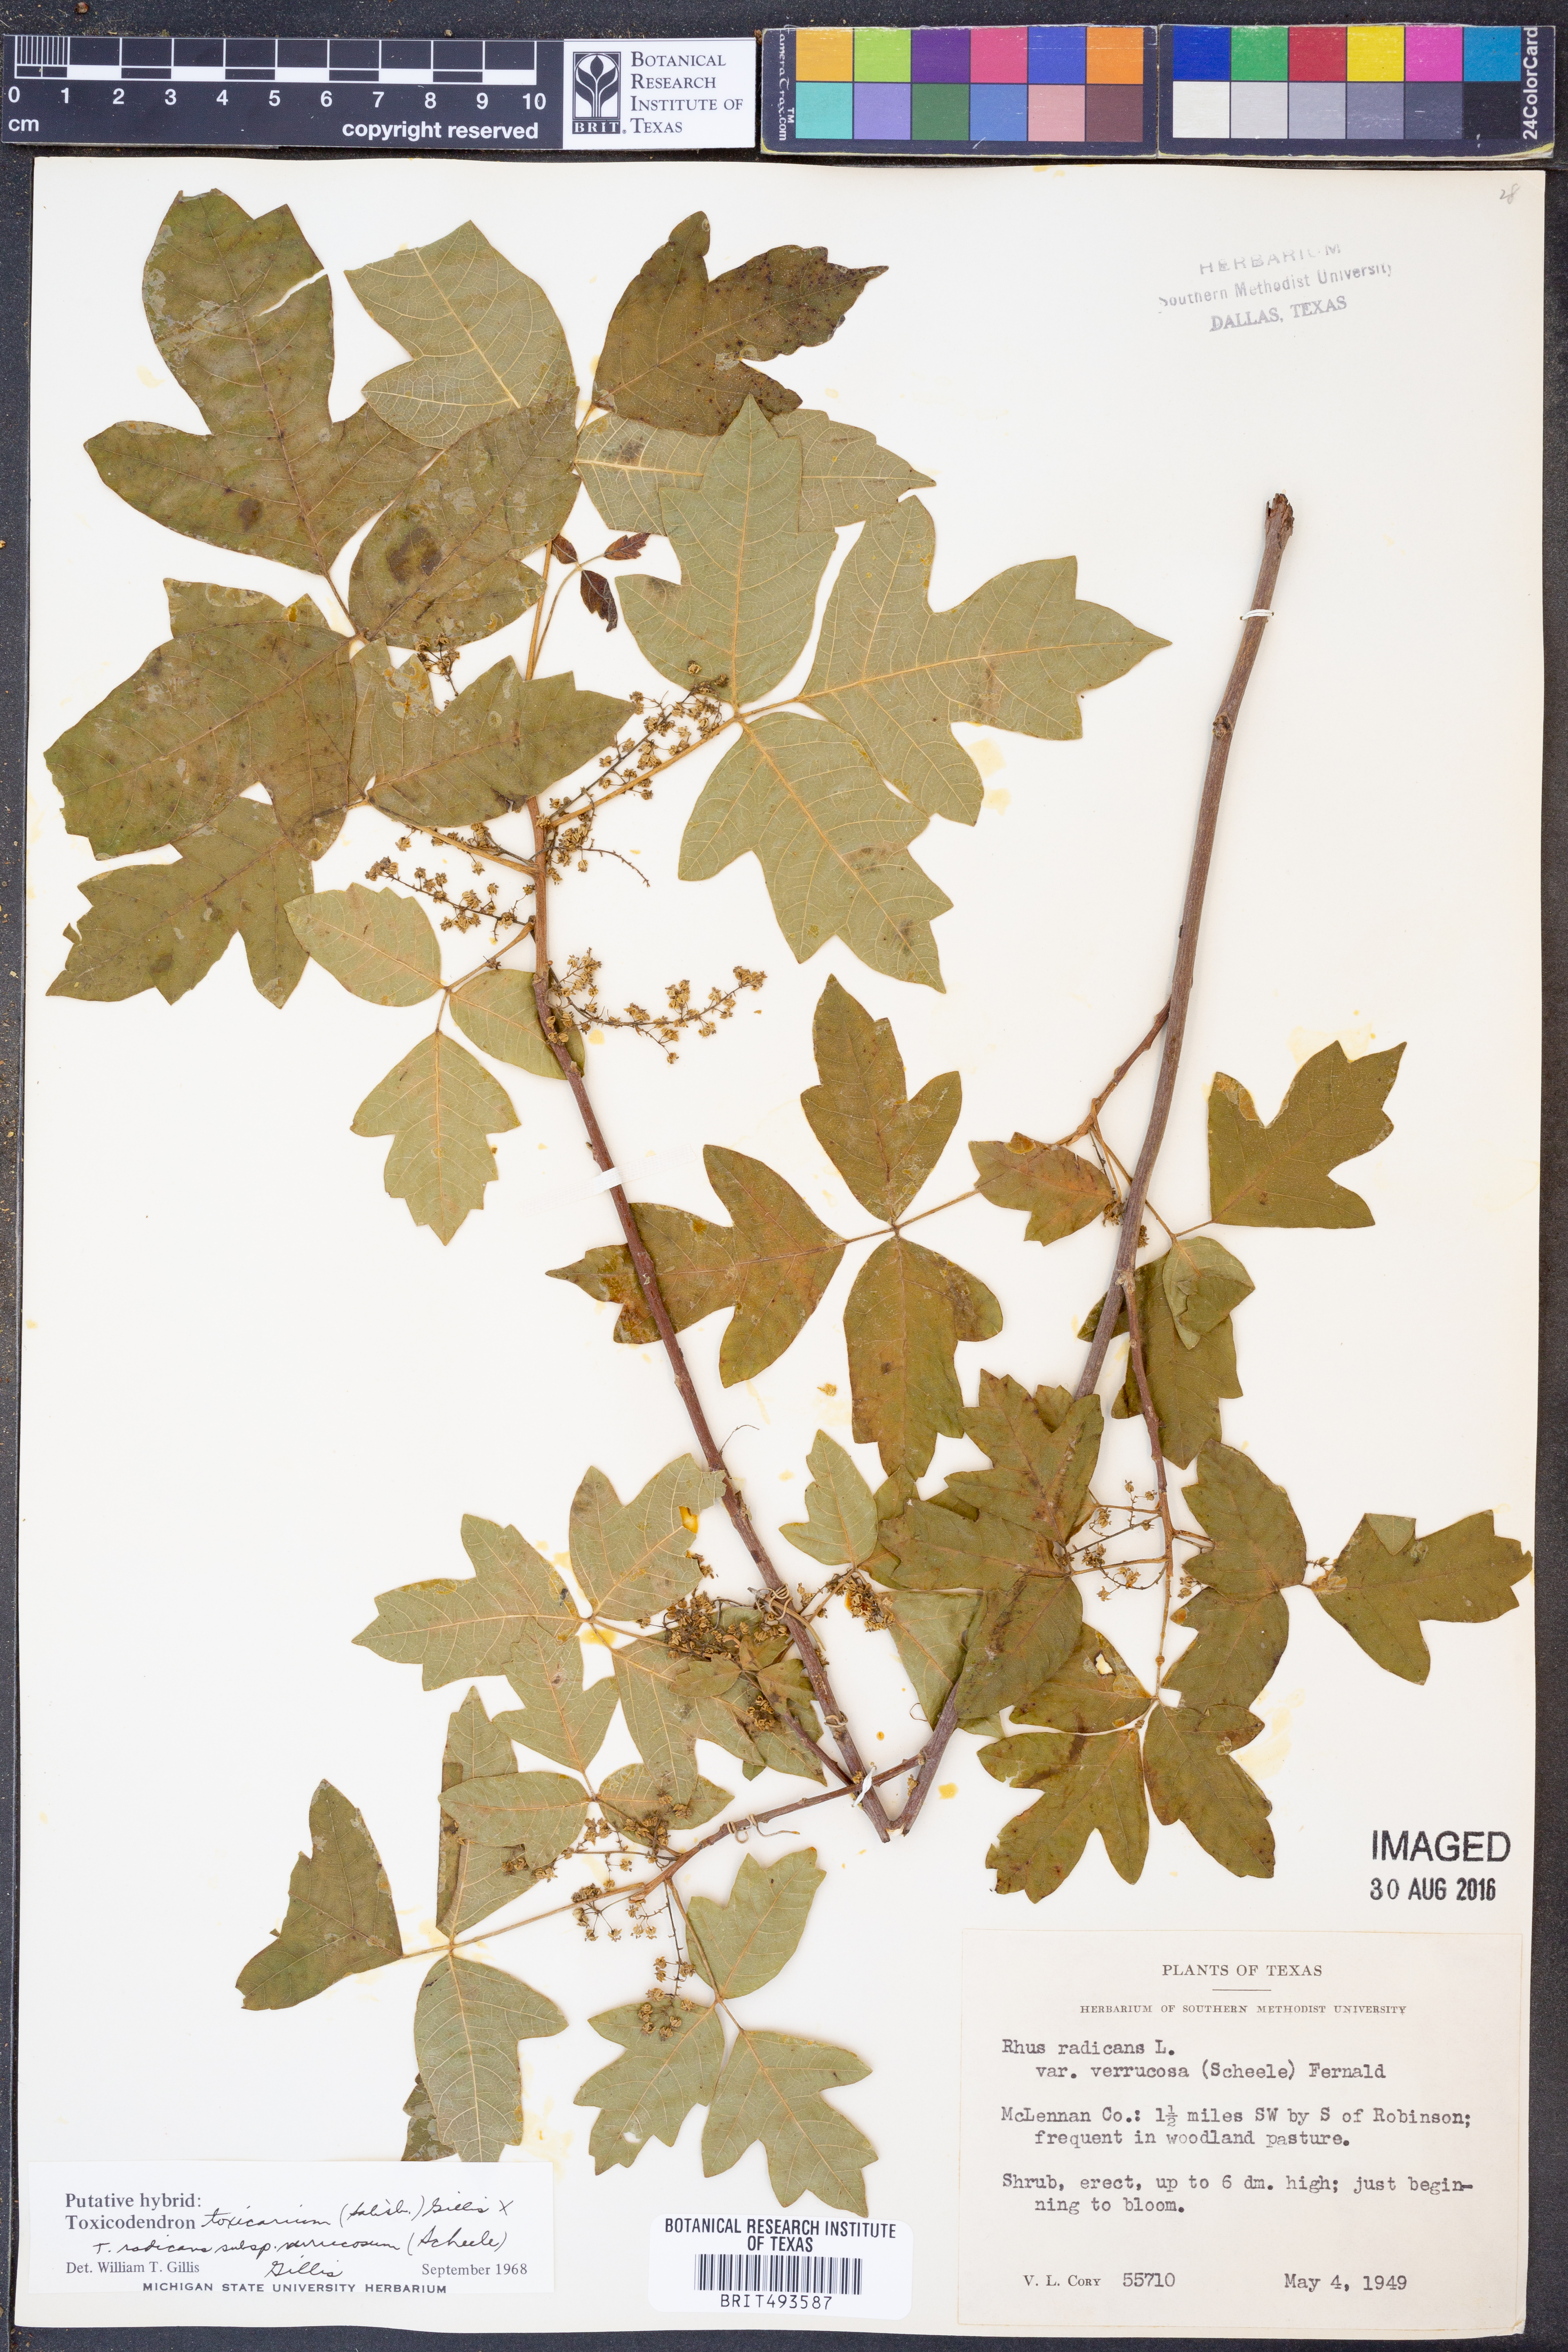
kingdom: Plantae
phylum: Tracheophyta
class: Magnoliopsida
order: Sapindales
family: Anacardiaceae
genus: Toxicodendron
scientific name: Toxicodendron pubescens
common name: Eastern poison-oak
